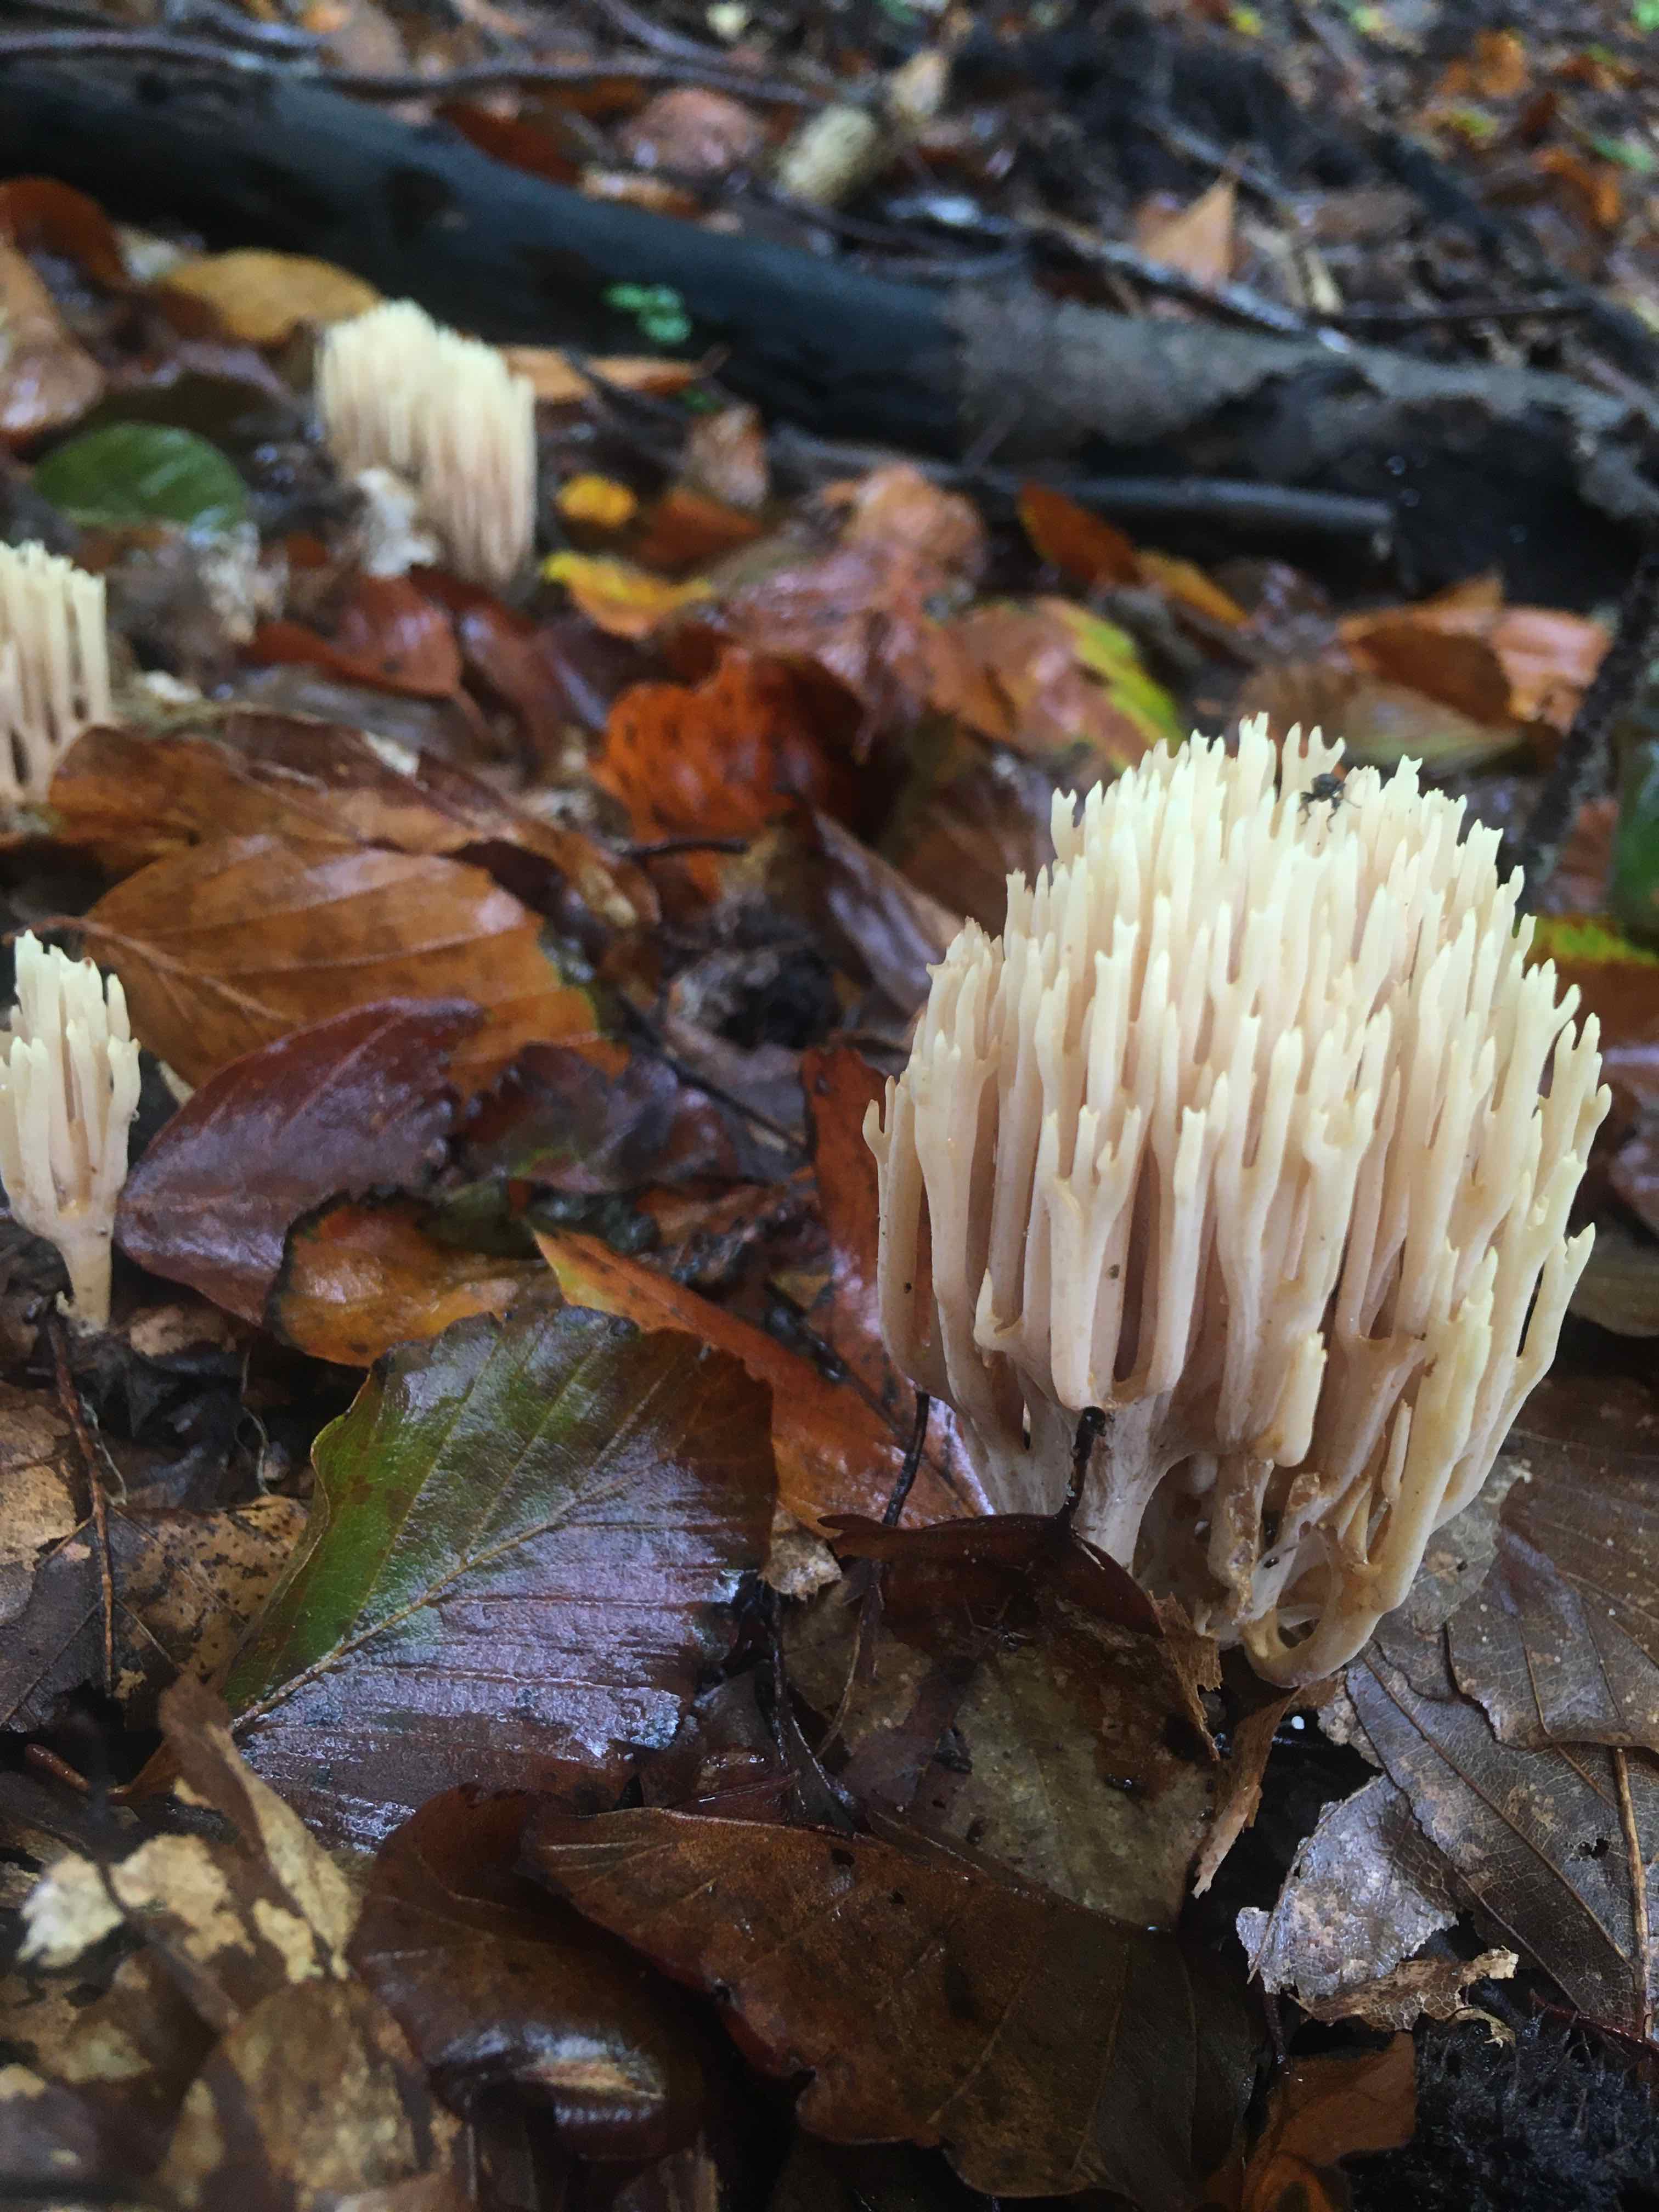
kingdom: Fungi
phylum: Basidiomycota
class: Agaricomycetes
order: Gomphales
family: Gomphaceae
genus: Ramaria
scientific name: Ramaria stricta
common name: rank koralsvamp
